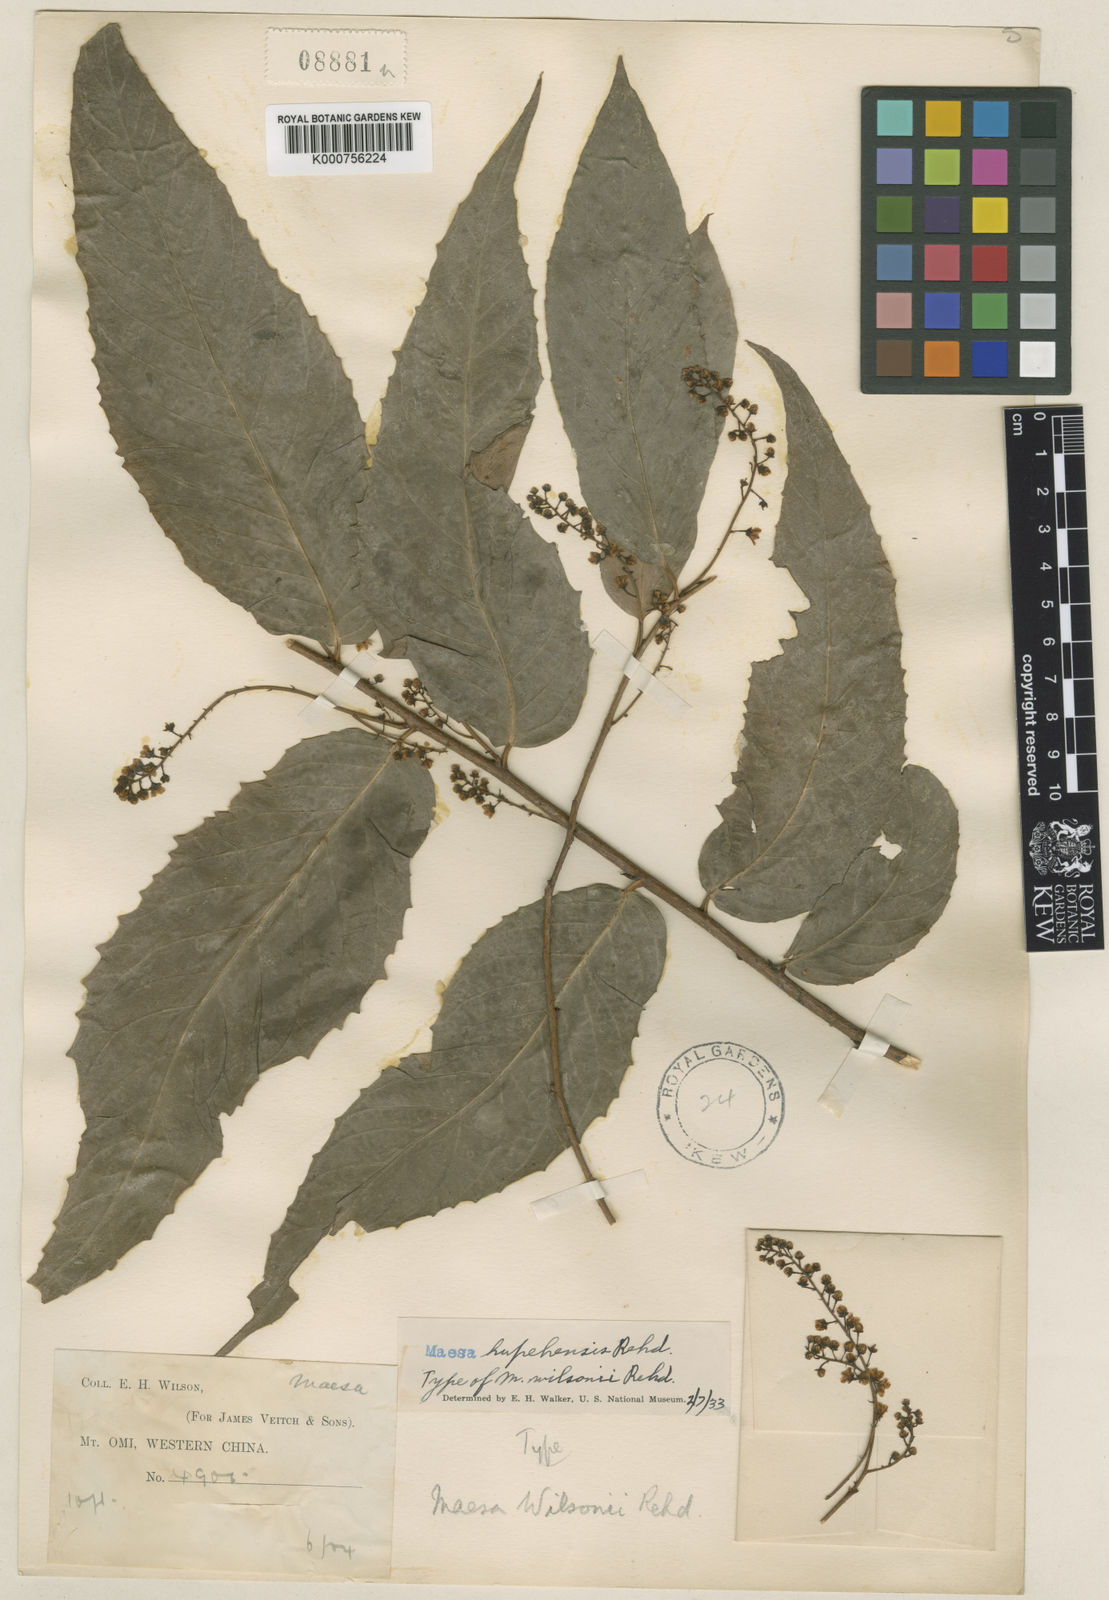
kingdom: Plantae
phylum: Tracheophyta
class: Magnoliopsida
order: Ericales
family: Primulaceae
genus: Maesa
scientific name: Maesa hupehensis
